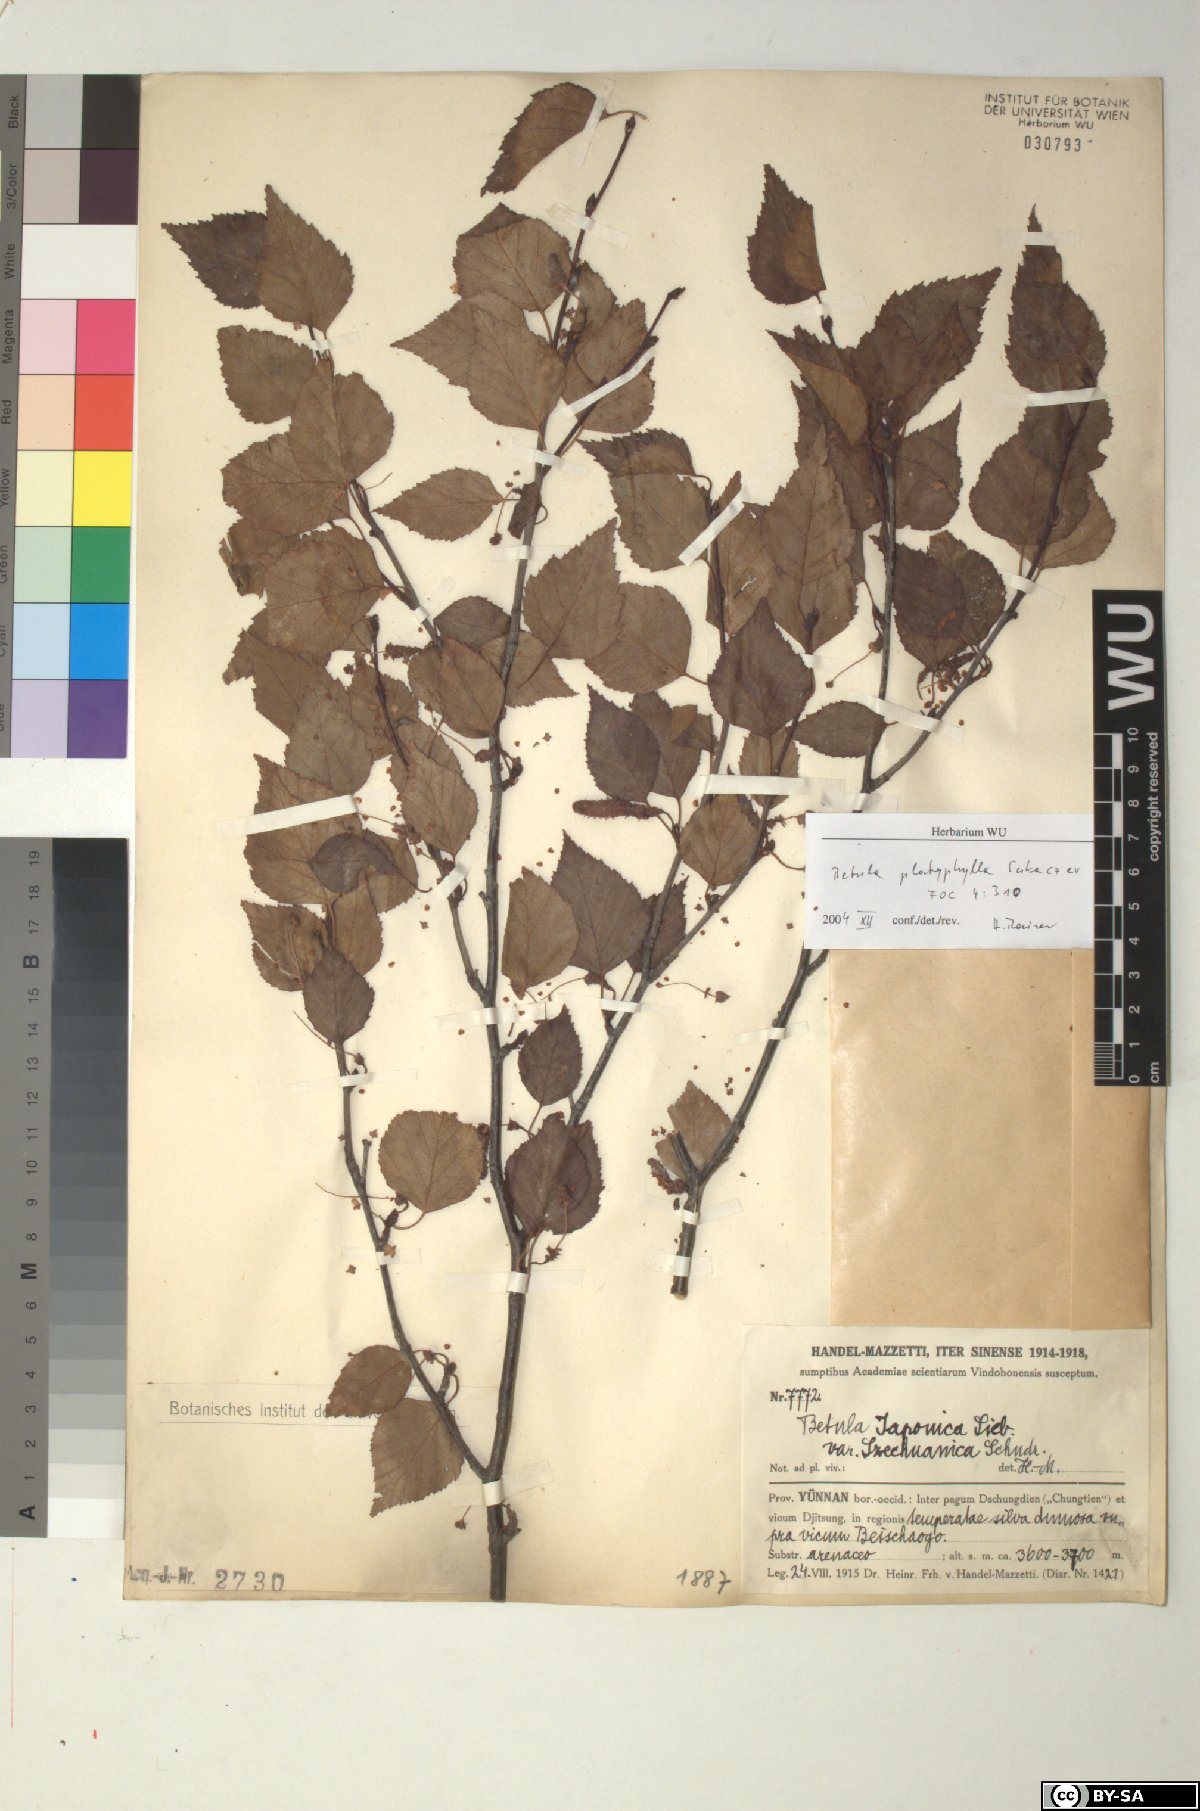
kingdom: Plantae
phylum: Tracheophyta
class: Magnoliopsida
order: Fagales
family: Betulaceae
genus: Betula
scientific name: Betula pendula
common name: Silver birch
